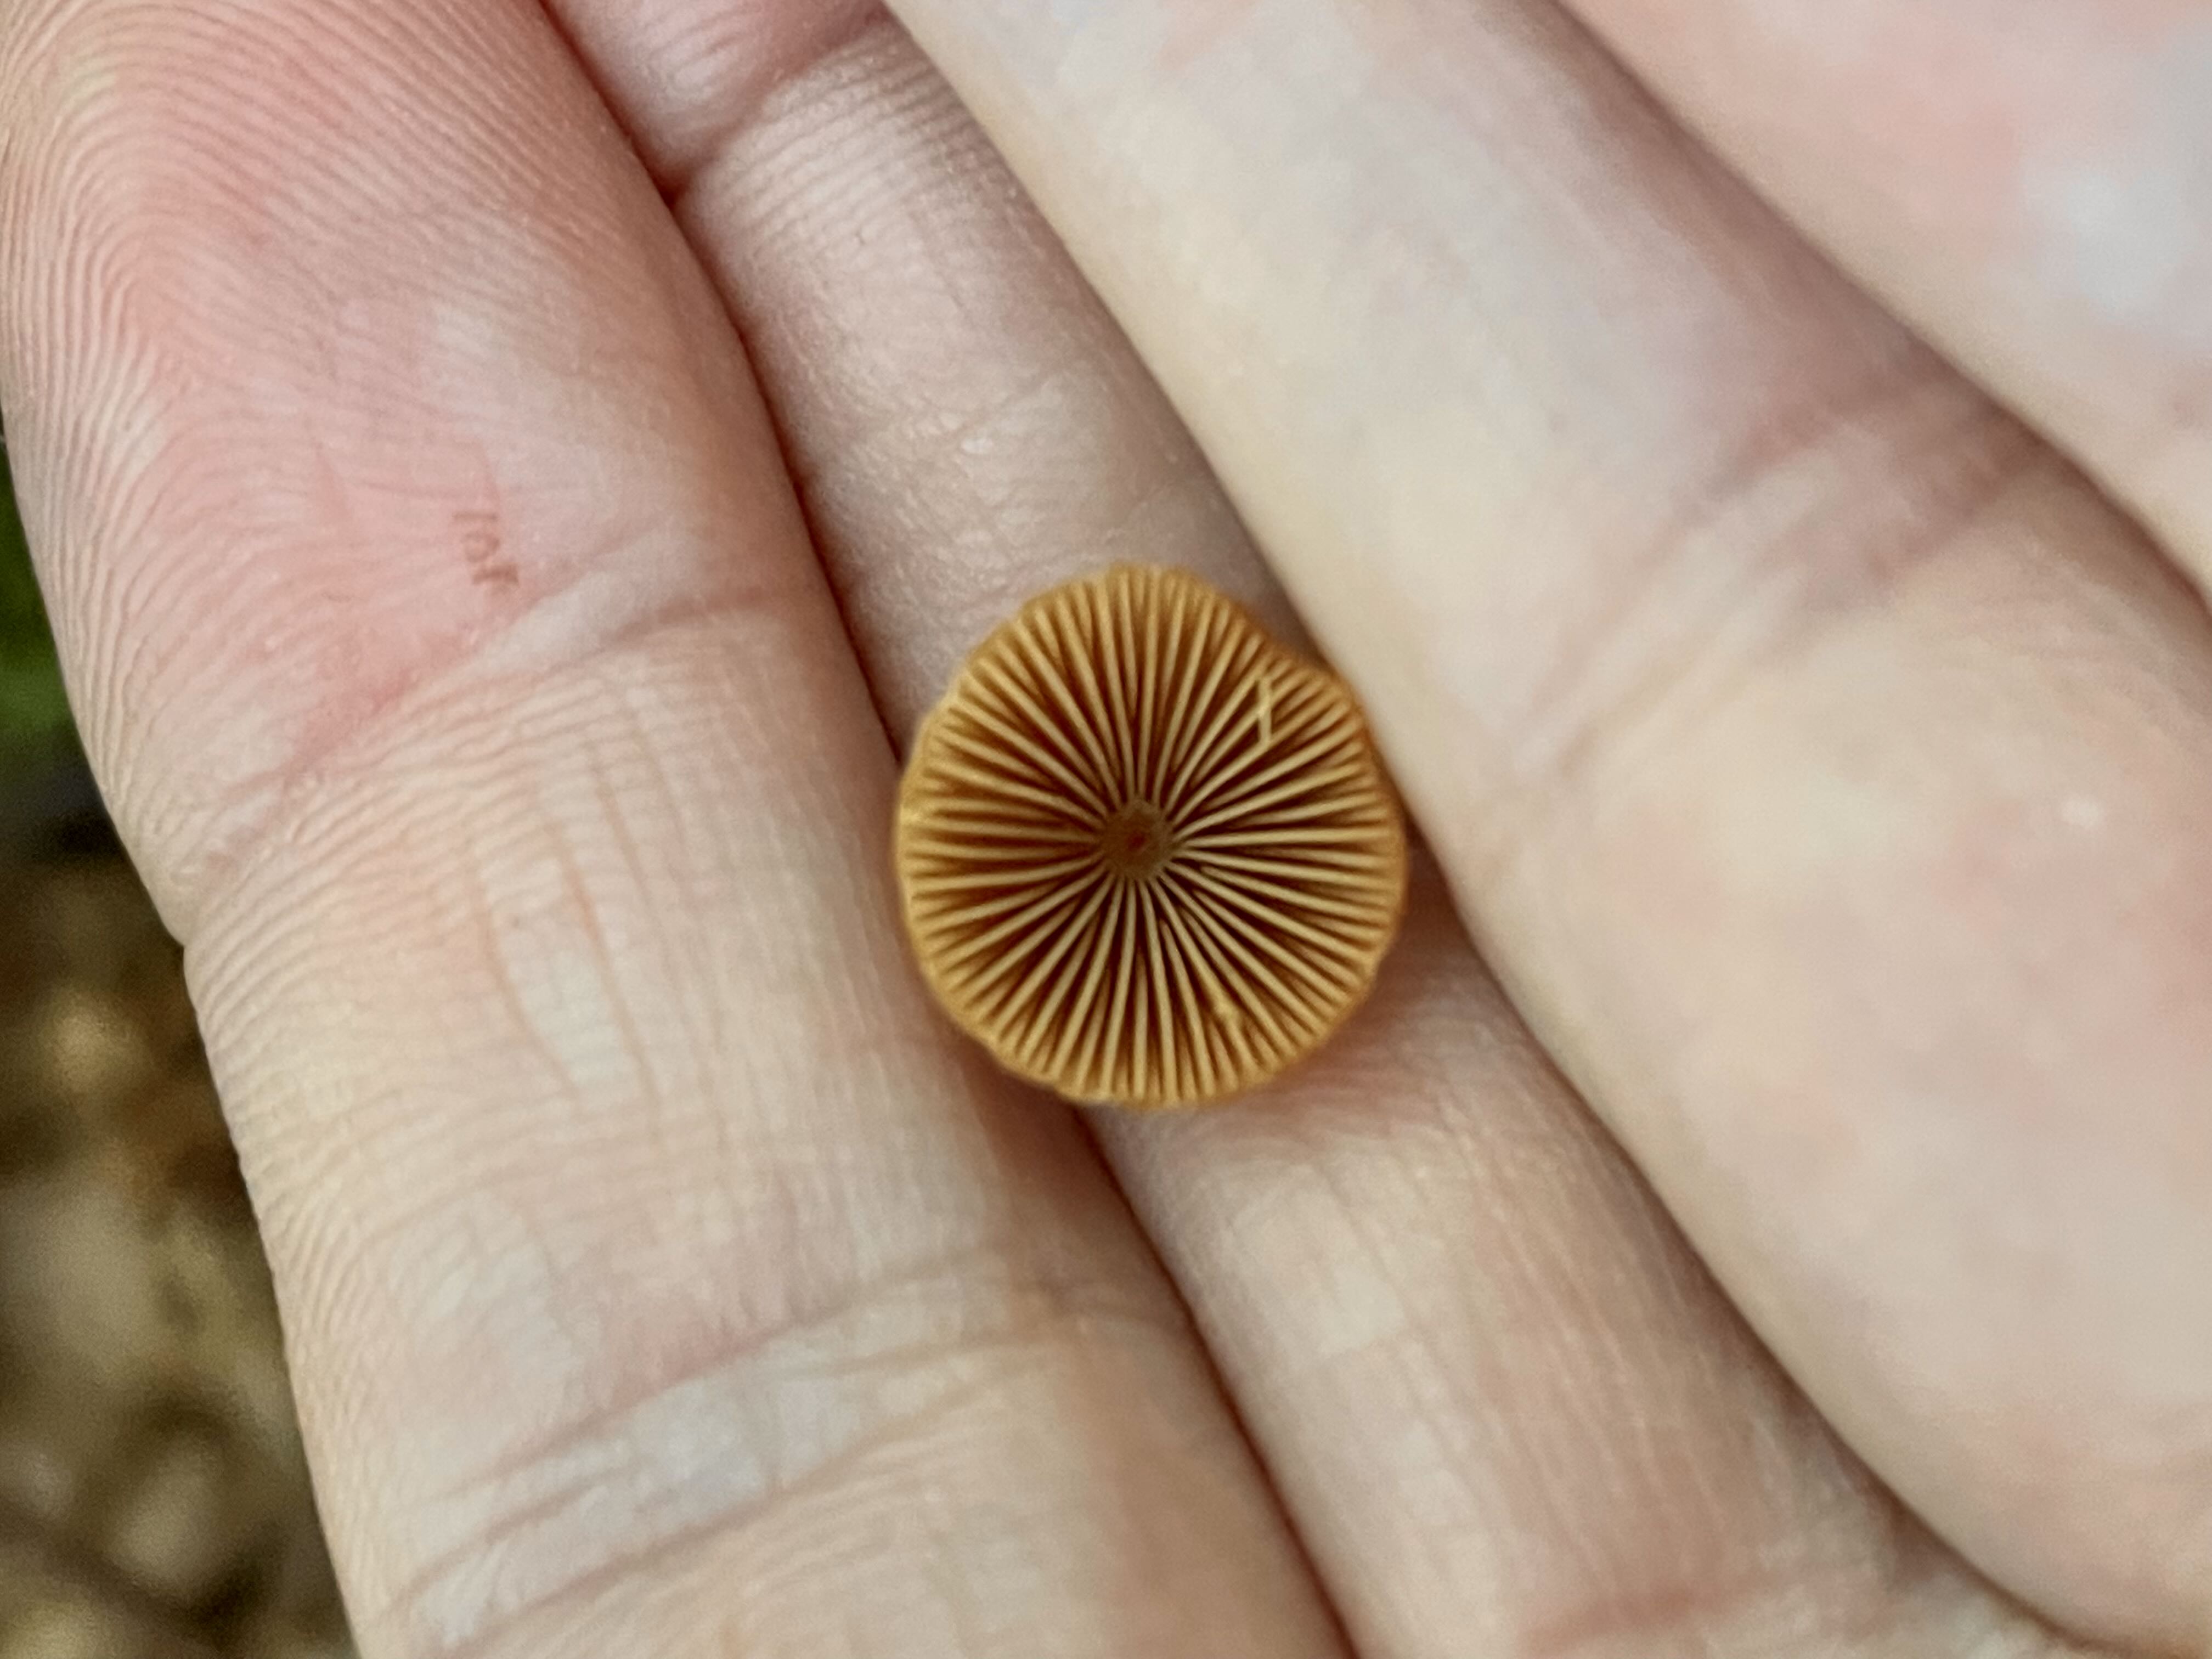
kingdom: Fungi
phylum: Basidiomycota
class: Agaricomycetes
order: Agaricales
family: Bolbitiaceae
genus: Conocybe
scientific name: Conocybe subpubescens
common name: krat-keglehat
